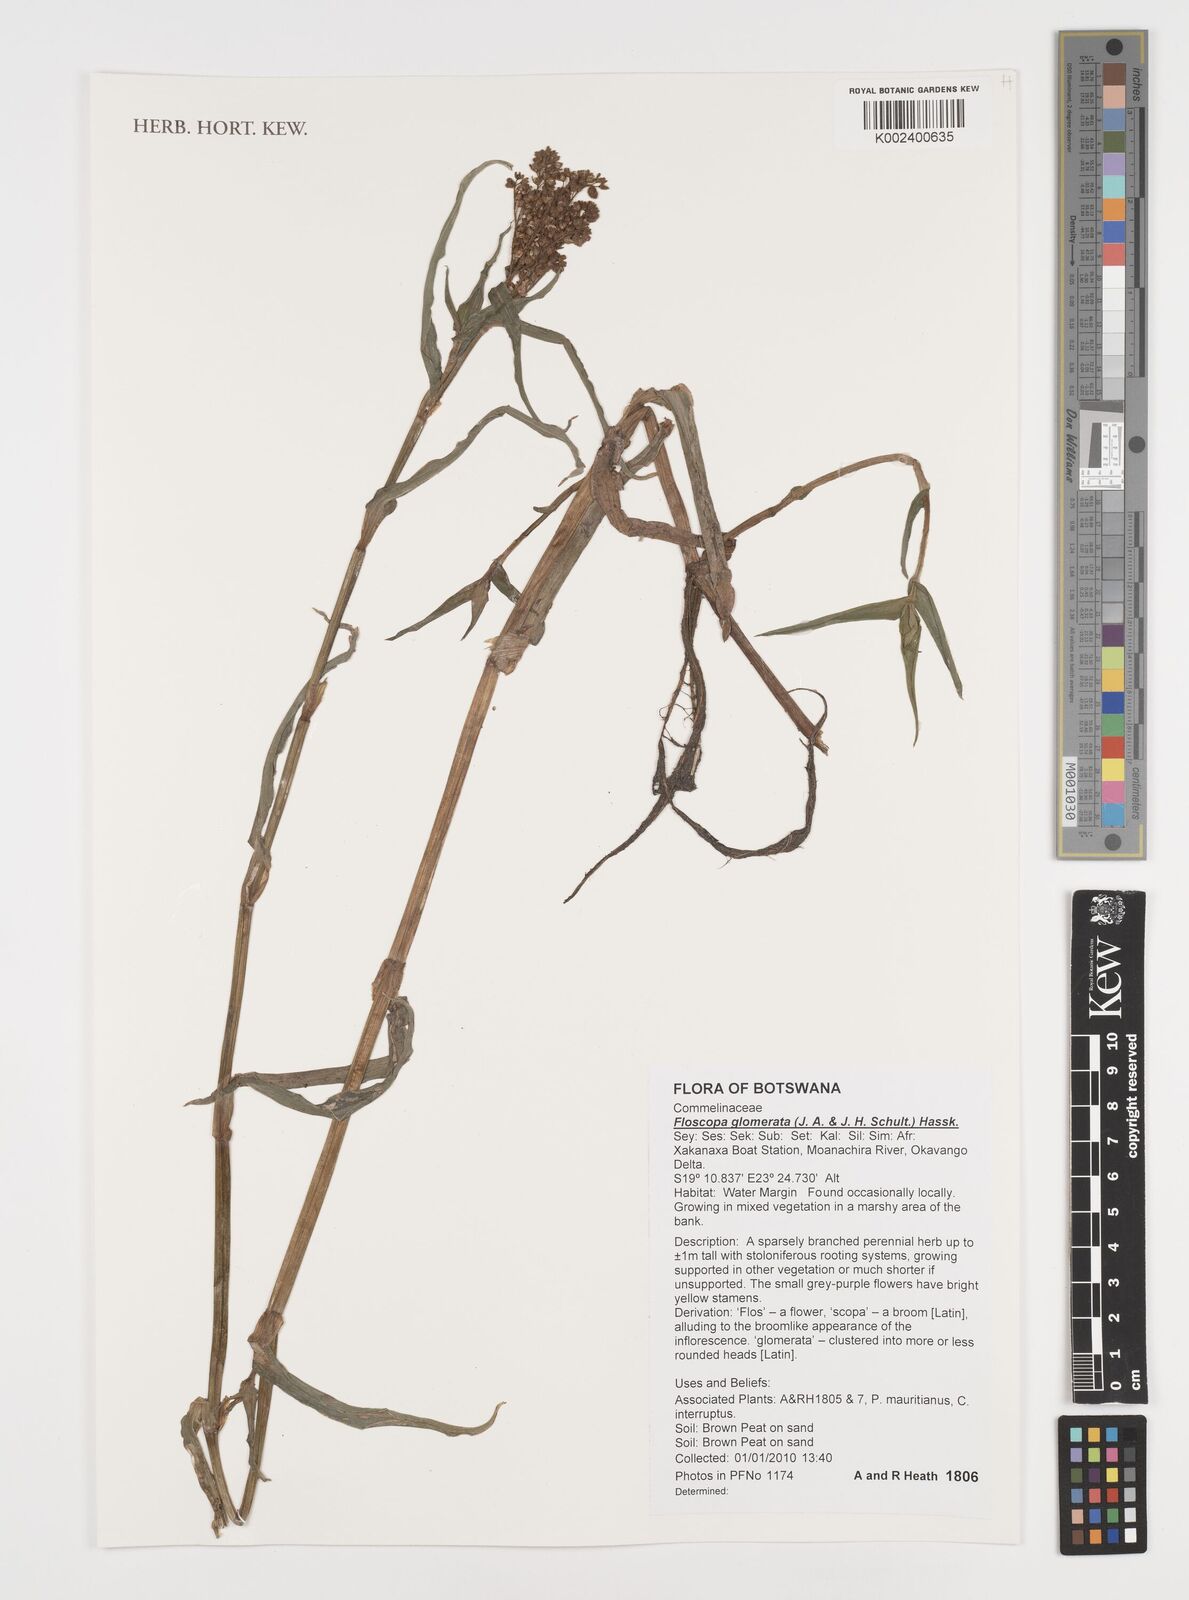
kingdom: Plantae
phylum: Tracheophyta
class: Liliopsida
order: Commelinales
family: Commelinaceae
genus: Floscopa
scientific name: Floscopa glomerata
